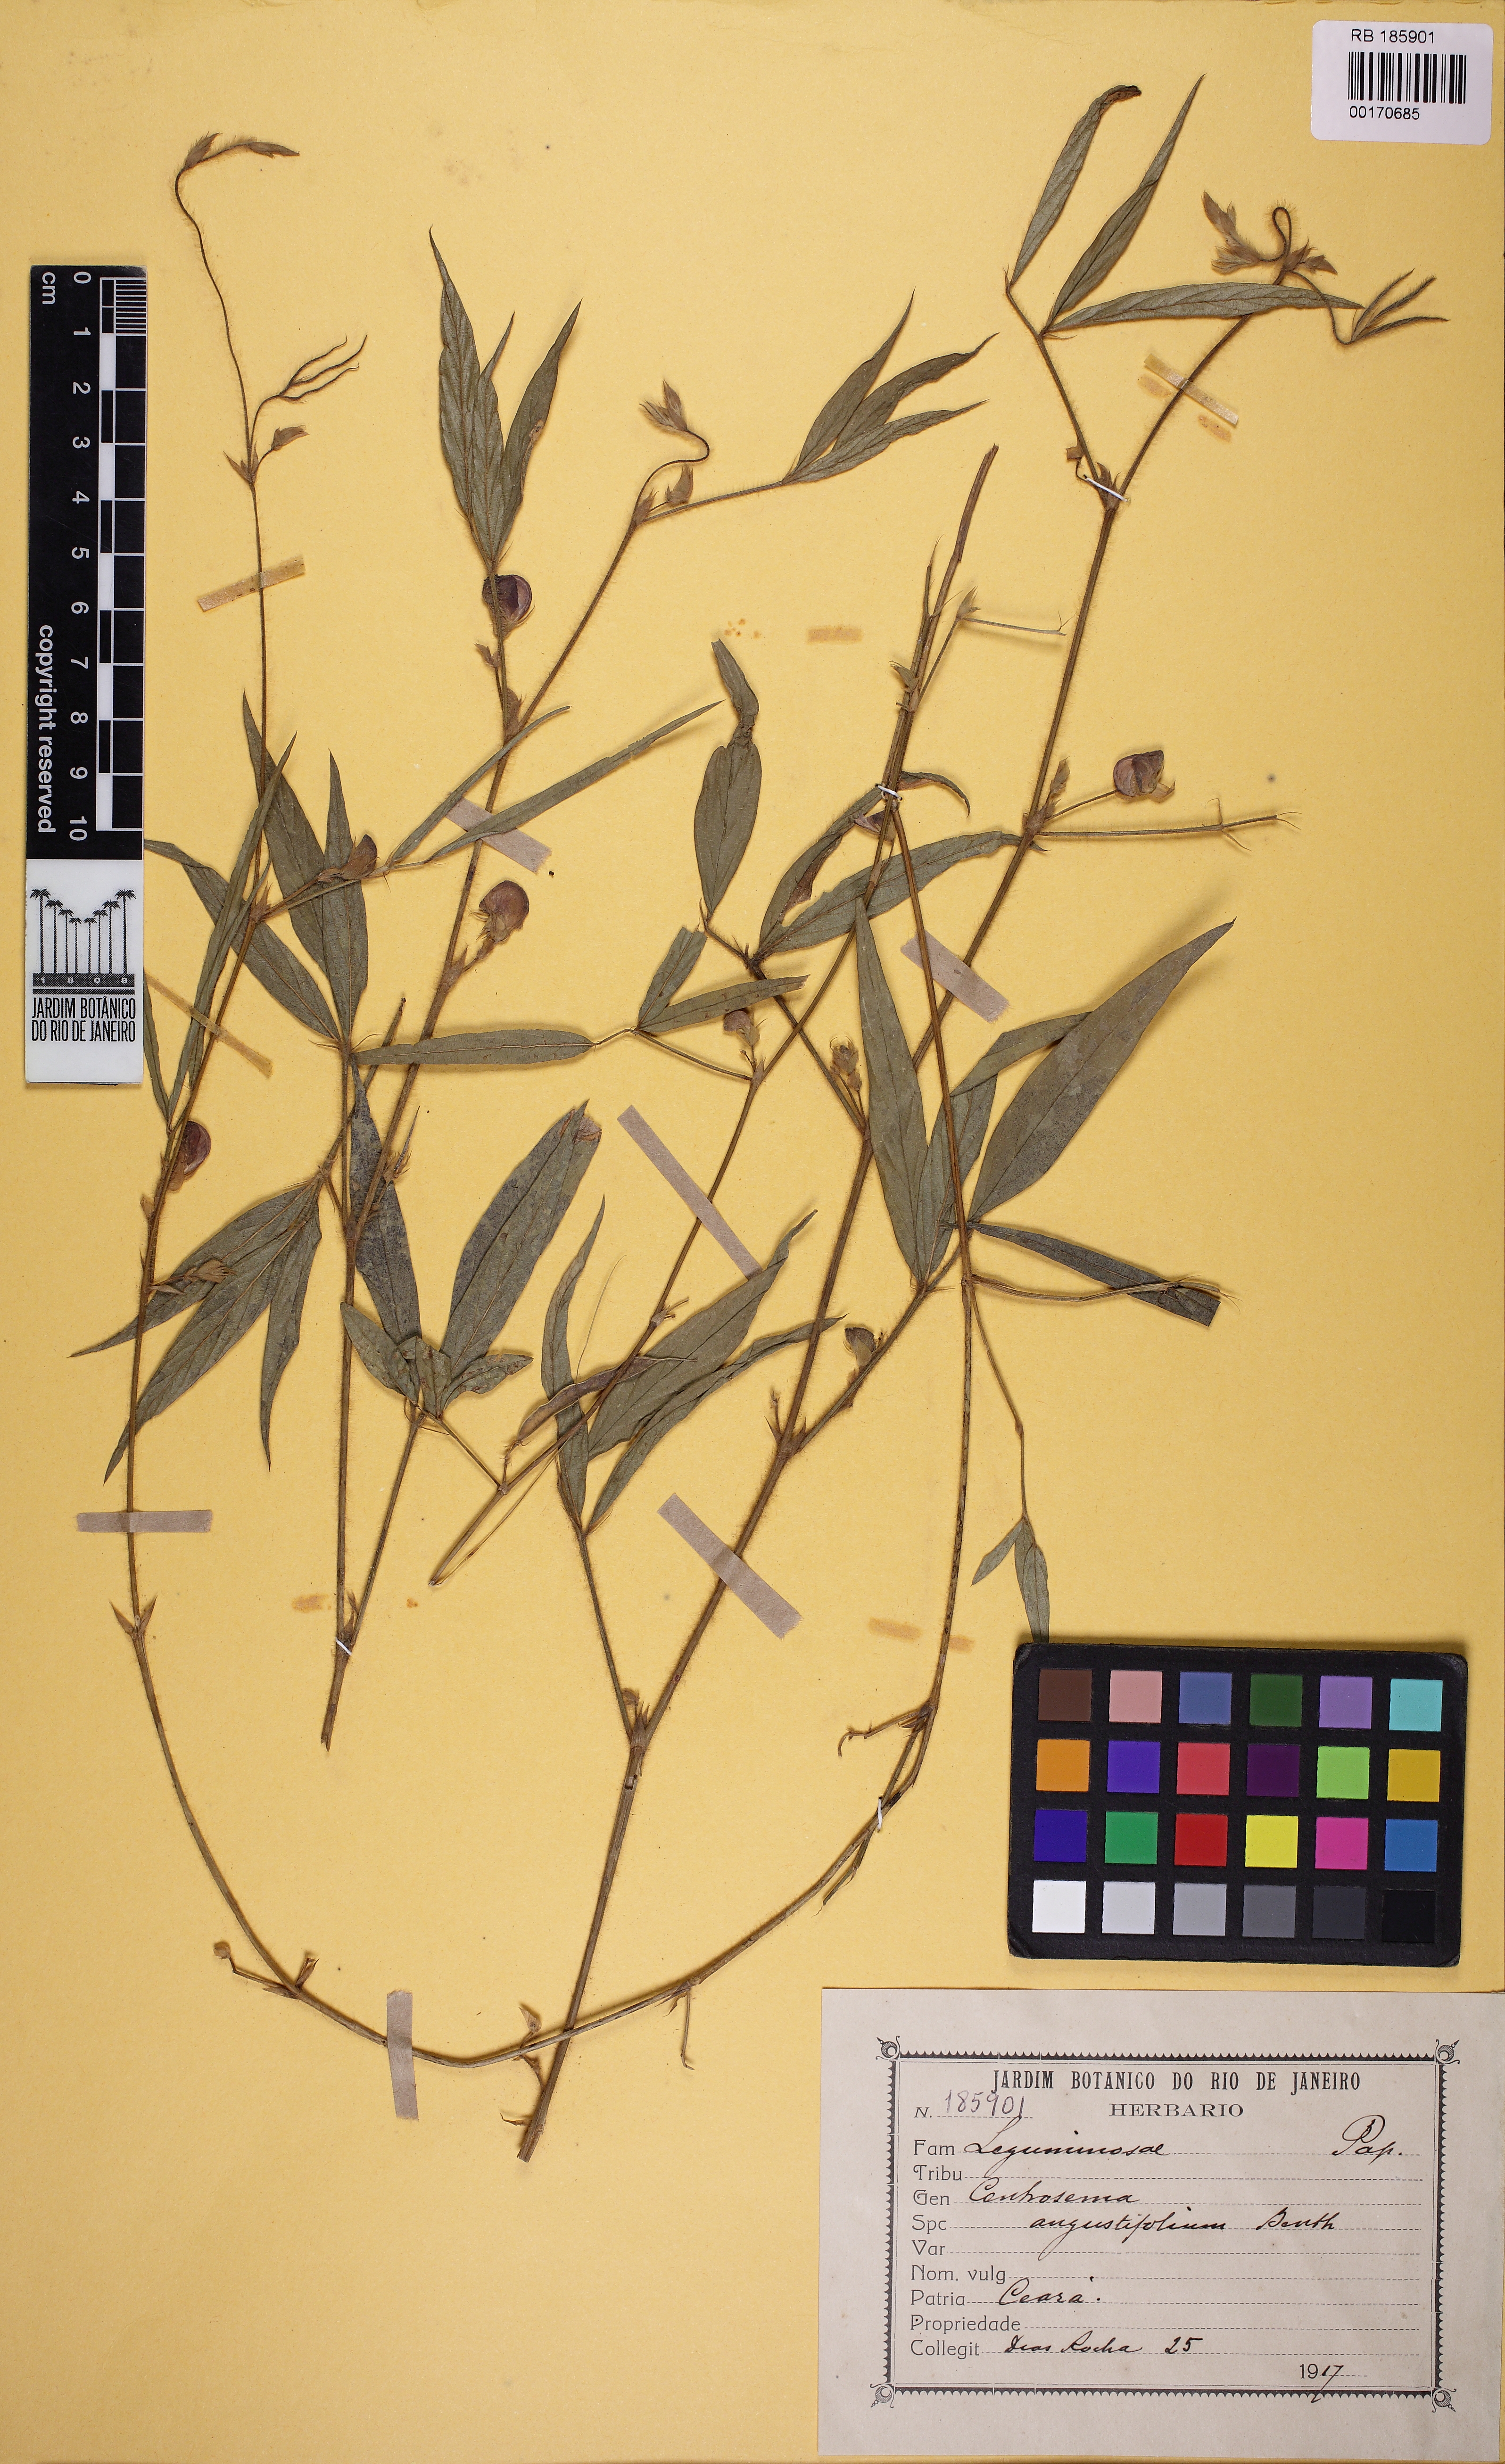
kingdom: Plantae
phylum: Tracheophyta
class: Magnoliopsida
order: Fabales
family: Fabaceae
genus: Centrosema
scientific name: Centrosema pascuorum
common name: Centurion
